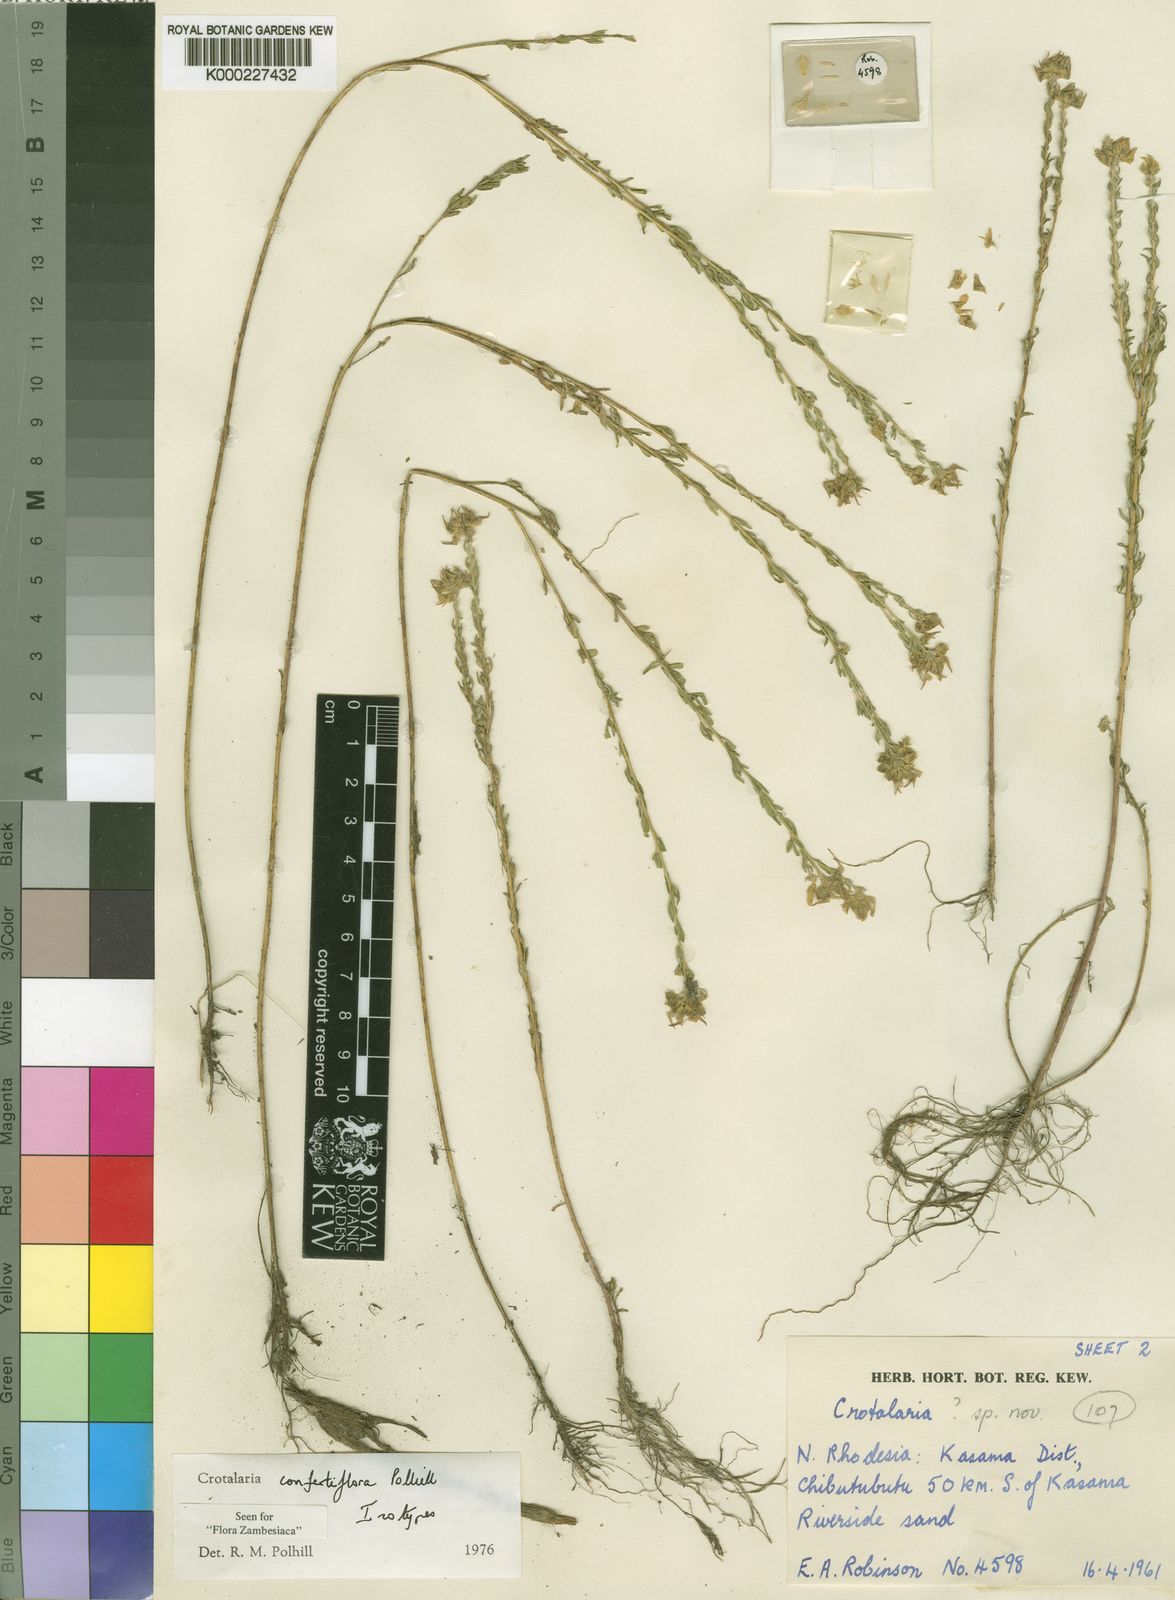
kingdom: Plantae
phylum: Tracheophyta
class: Magnoliopsida
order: Fabales
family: Fabaceae
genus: Crotalaria
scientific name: Crotalaria confertiflora
